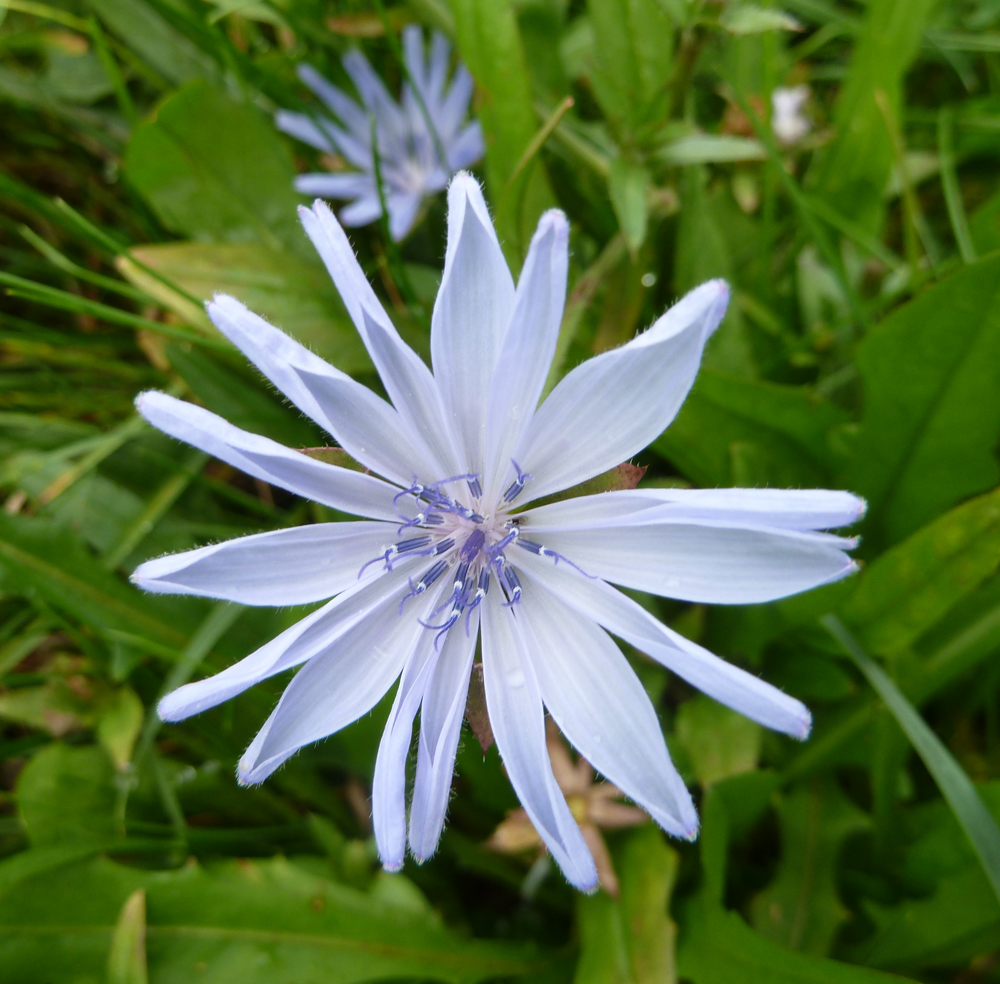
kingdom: Plantae
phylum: Tracheophyta
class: Magnoliopsida
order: Asterales
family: Asteraceae
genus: Cichorium
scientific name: Cichorium intybus
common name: Chicory
